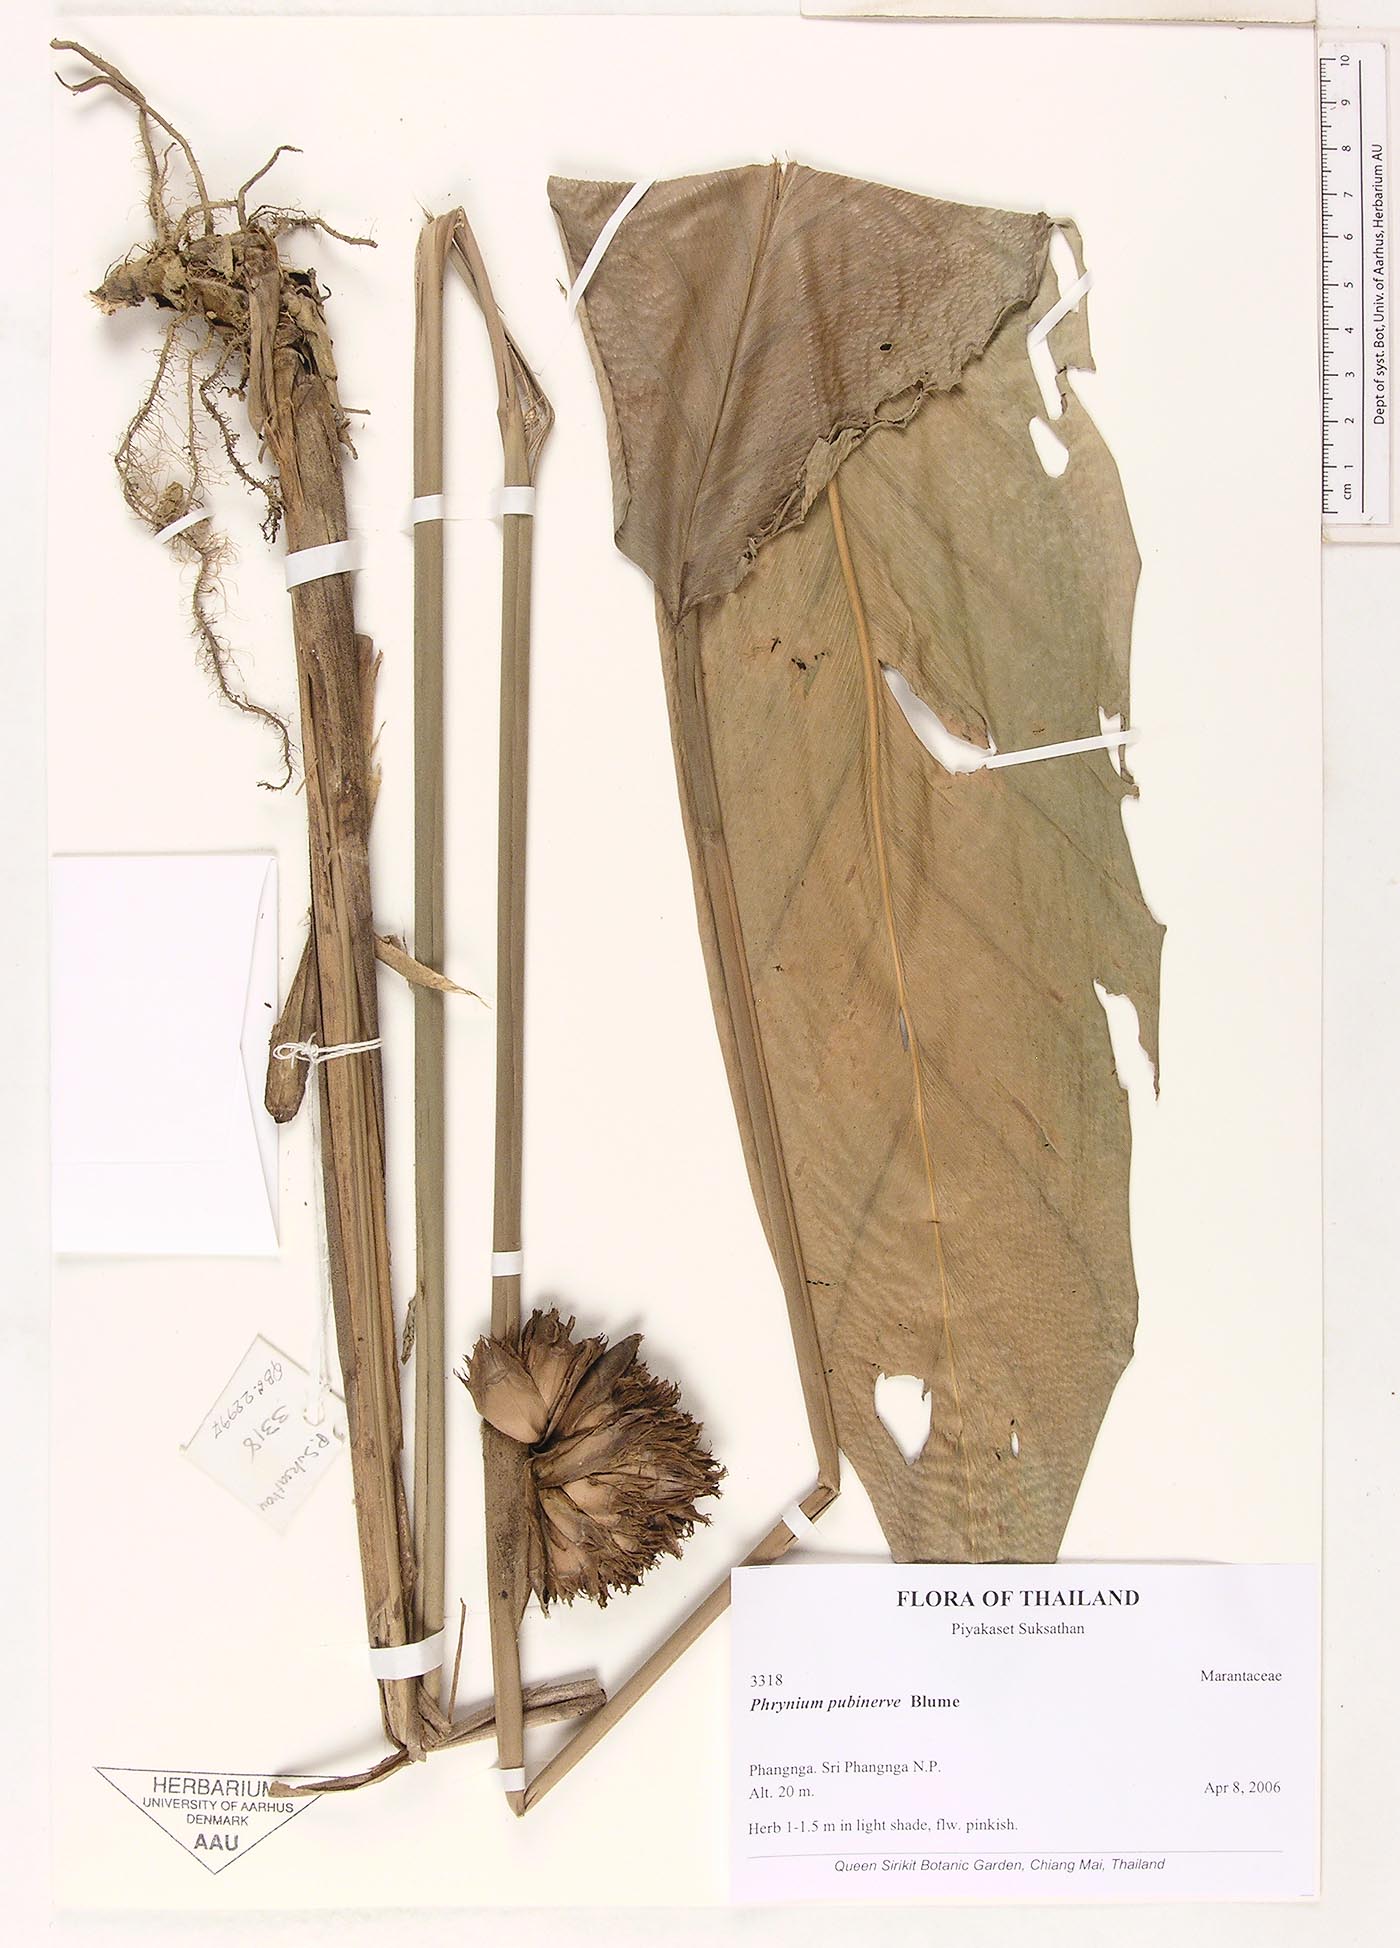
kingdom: Plantae
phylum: Tracheophyta
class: Liliopsida
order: Zingiberales
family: Marantaceae
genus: Phrynium
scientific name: Phrynium pubinerve
